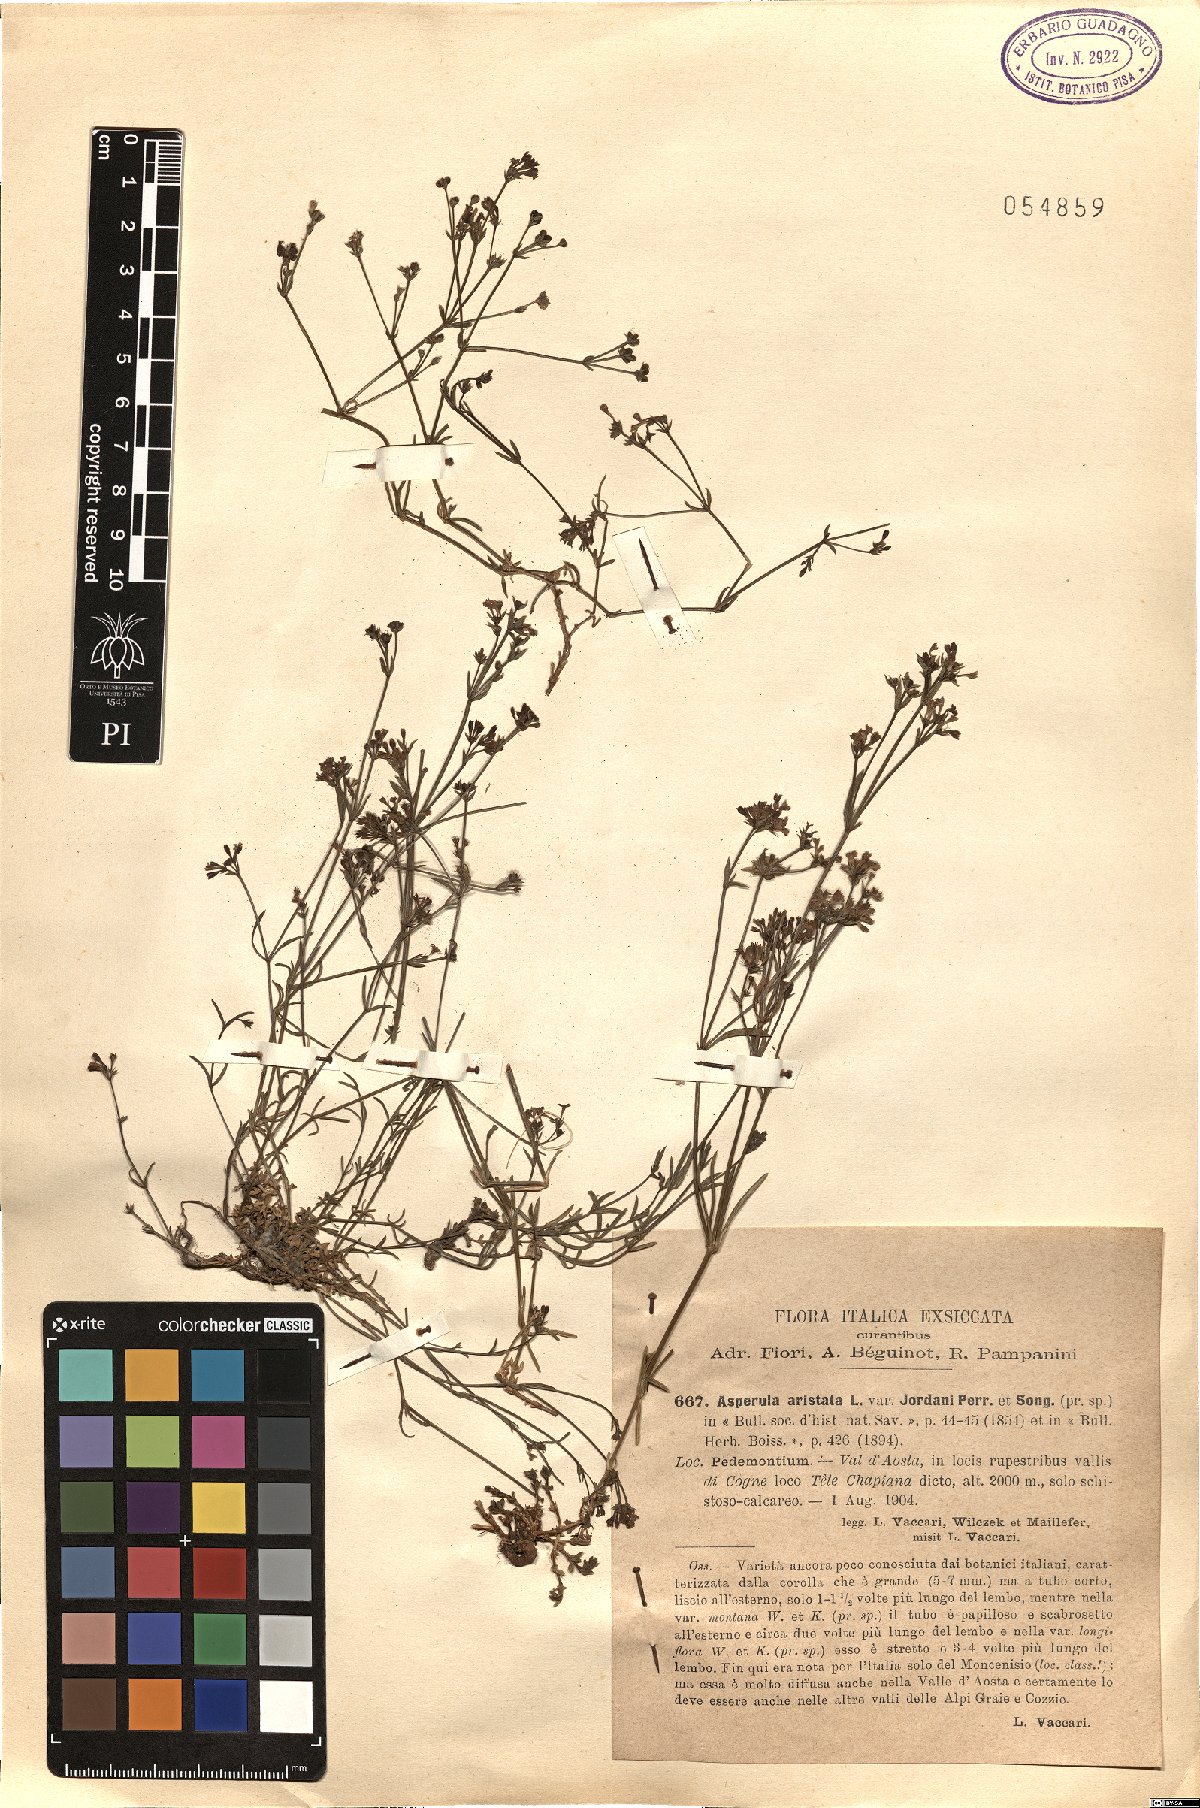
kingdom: Plantae
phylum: Tracheophyta
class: Magnoliopsida
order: Gentianales
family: Rubiaceae
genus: Cynanchica
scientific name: Cynanchica aristata
